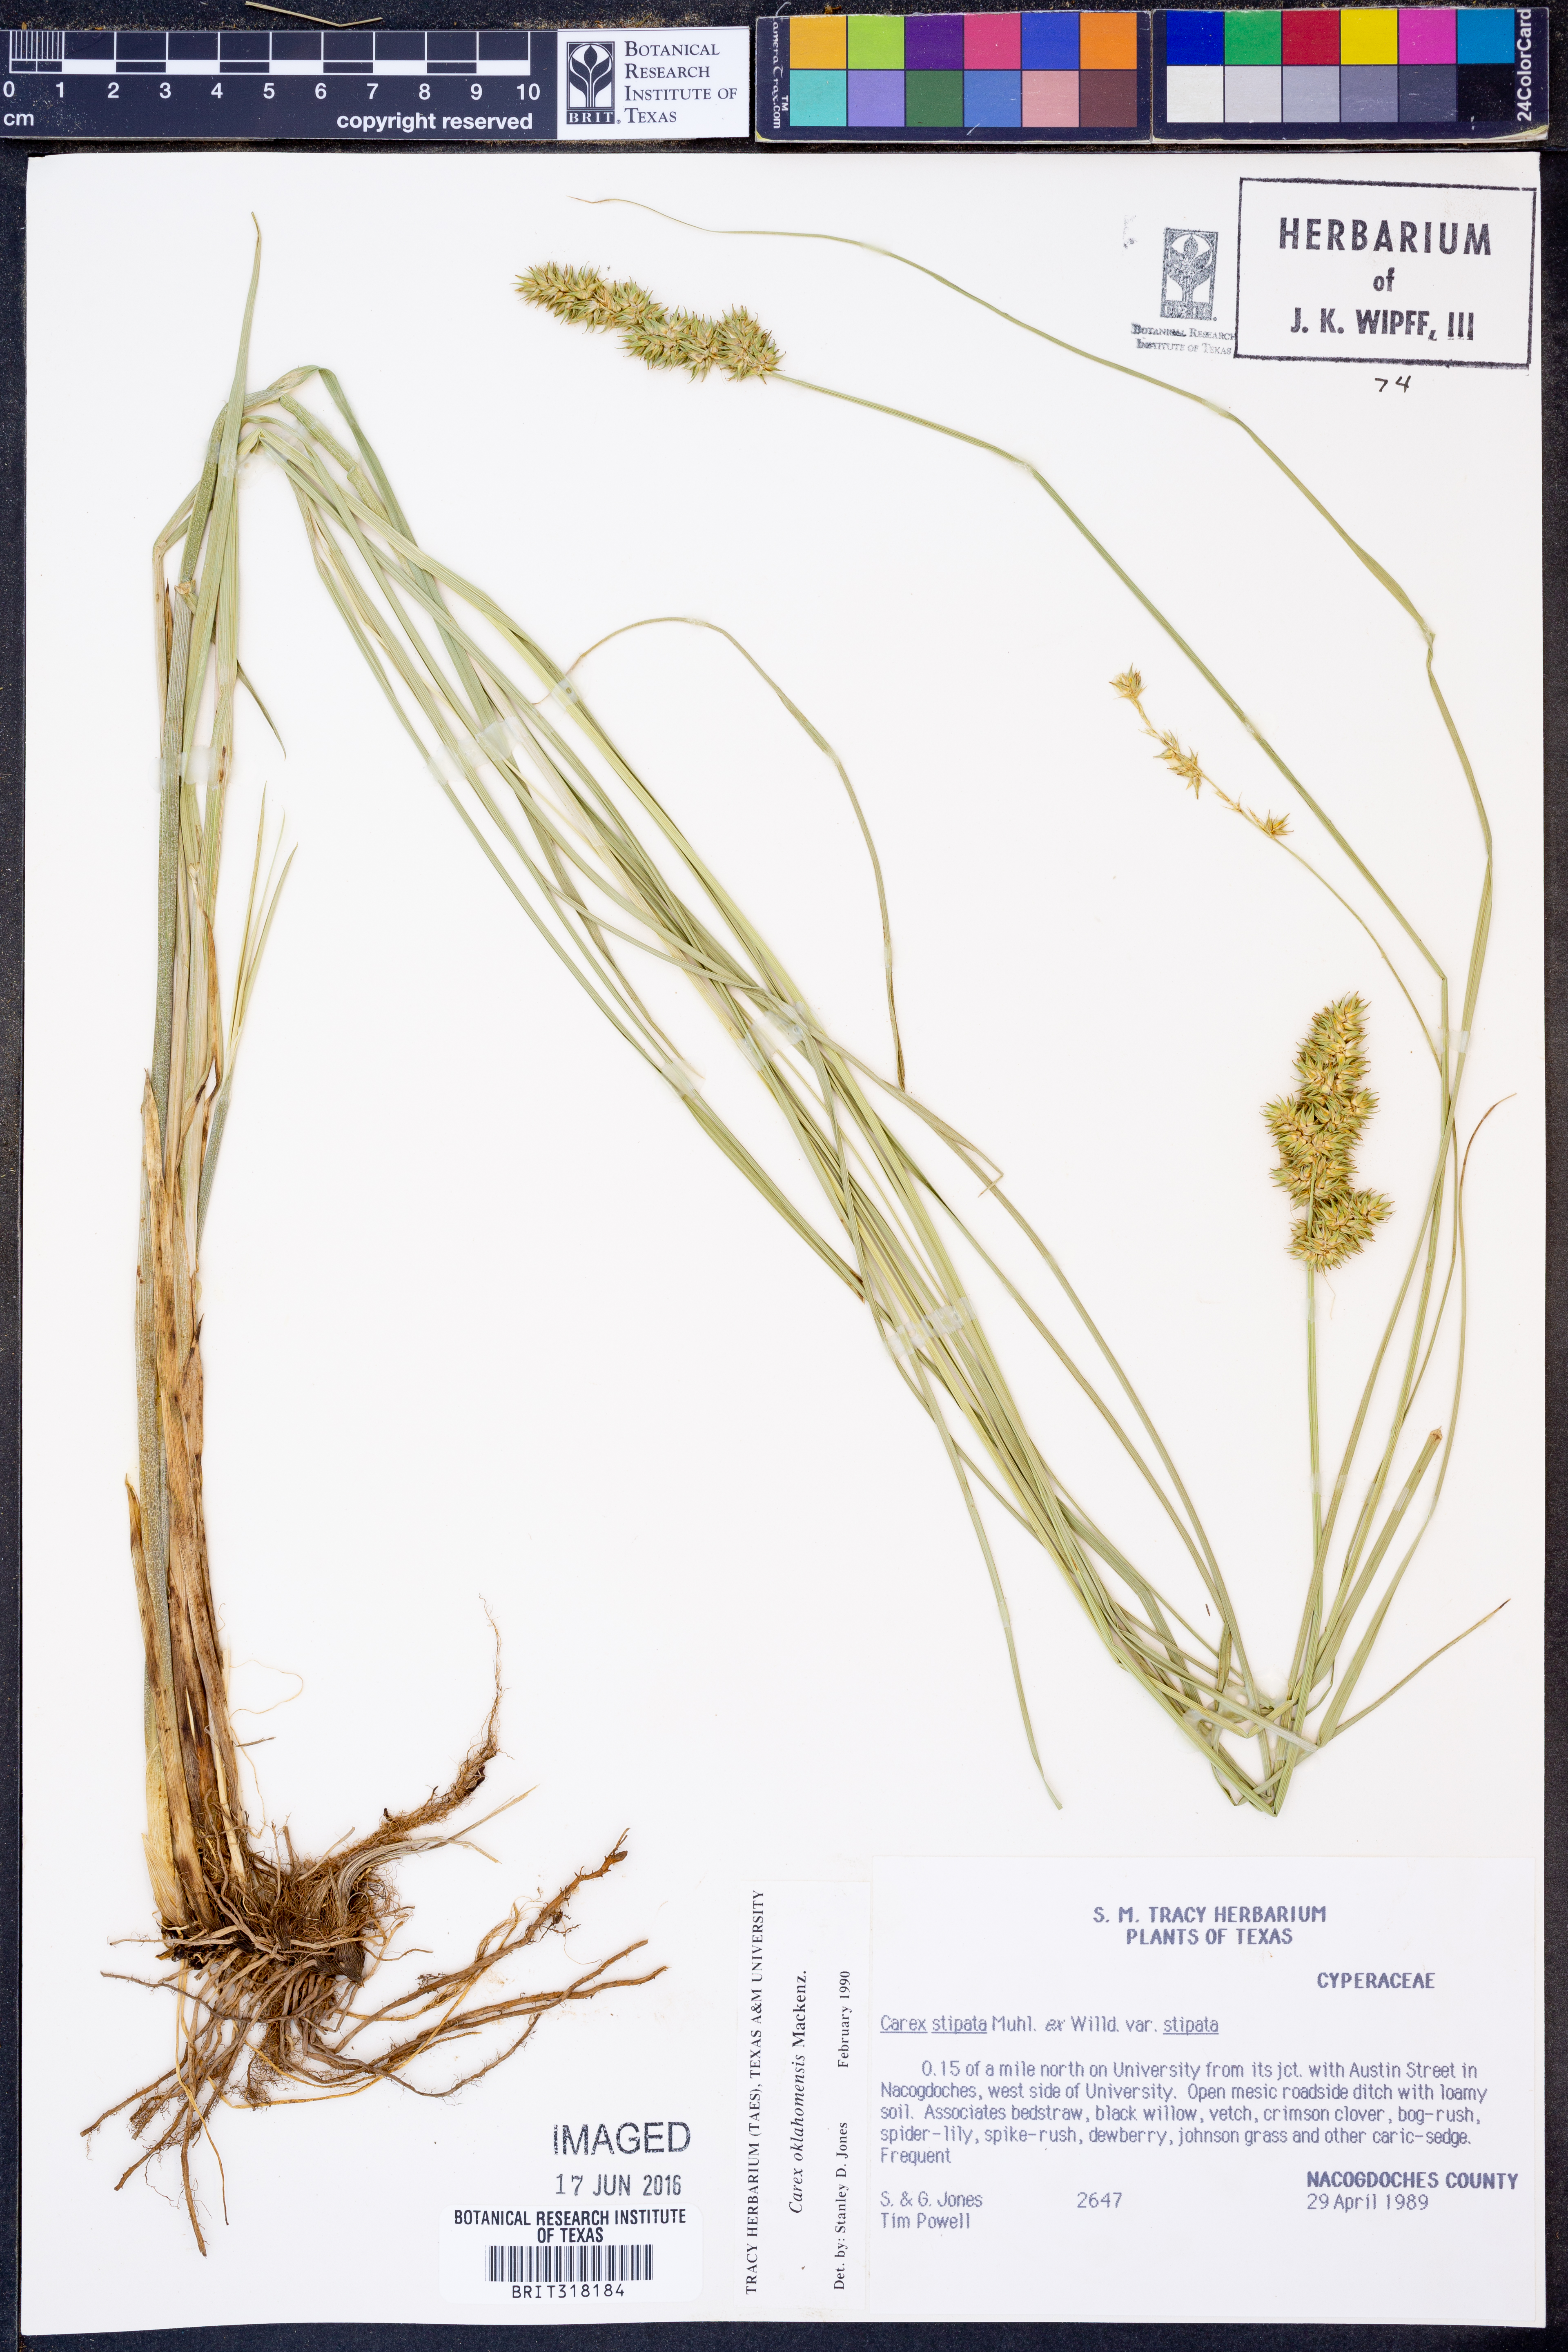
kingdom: Plantae
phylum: Tracheophyta
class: Liliopsida
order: Poales
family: Cyperaceae
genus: Carex
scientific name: Carex oklahomensis
